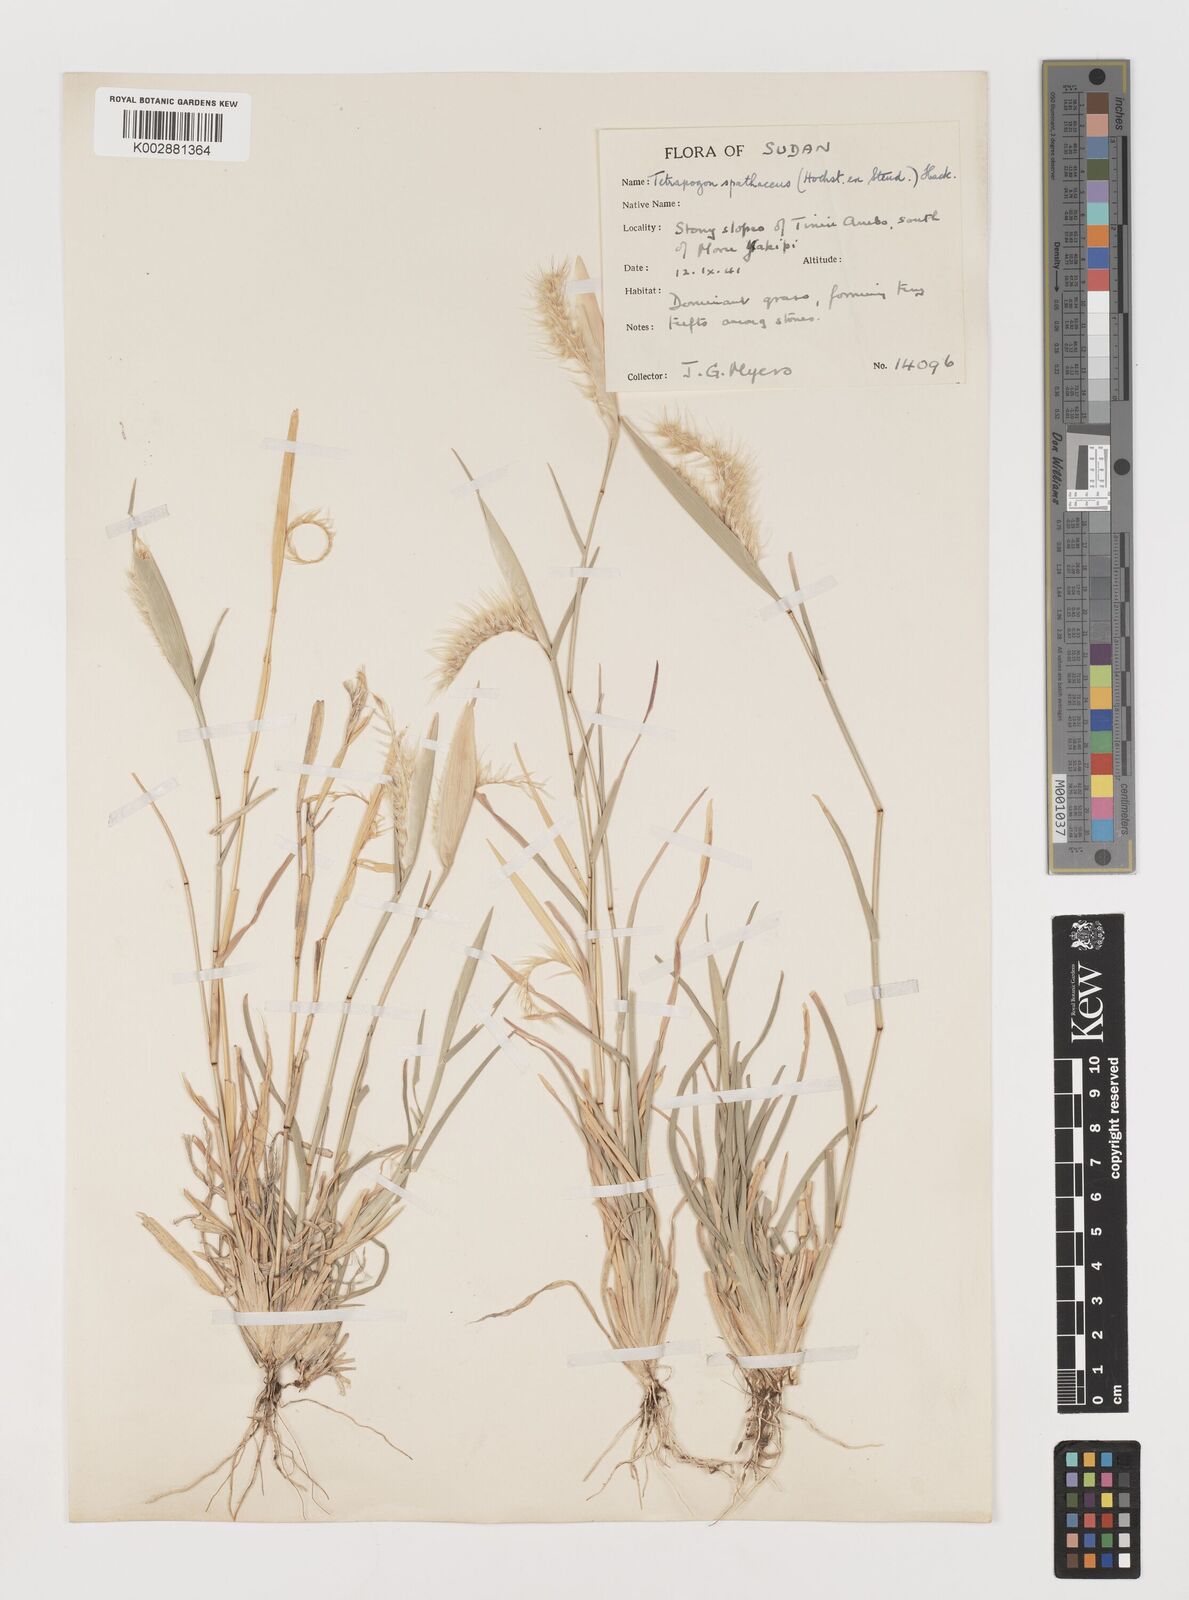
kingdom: Plantae
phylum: Tracheophyta
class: Liliopsida
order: Poales
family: Poaceae
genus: Tetrapogon
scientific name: Tetrapogon cenchriformis
